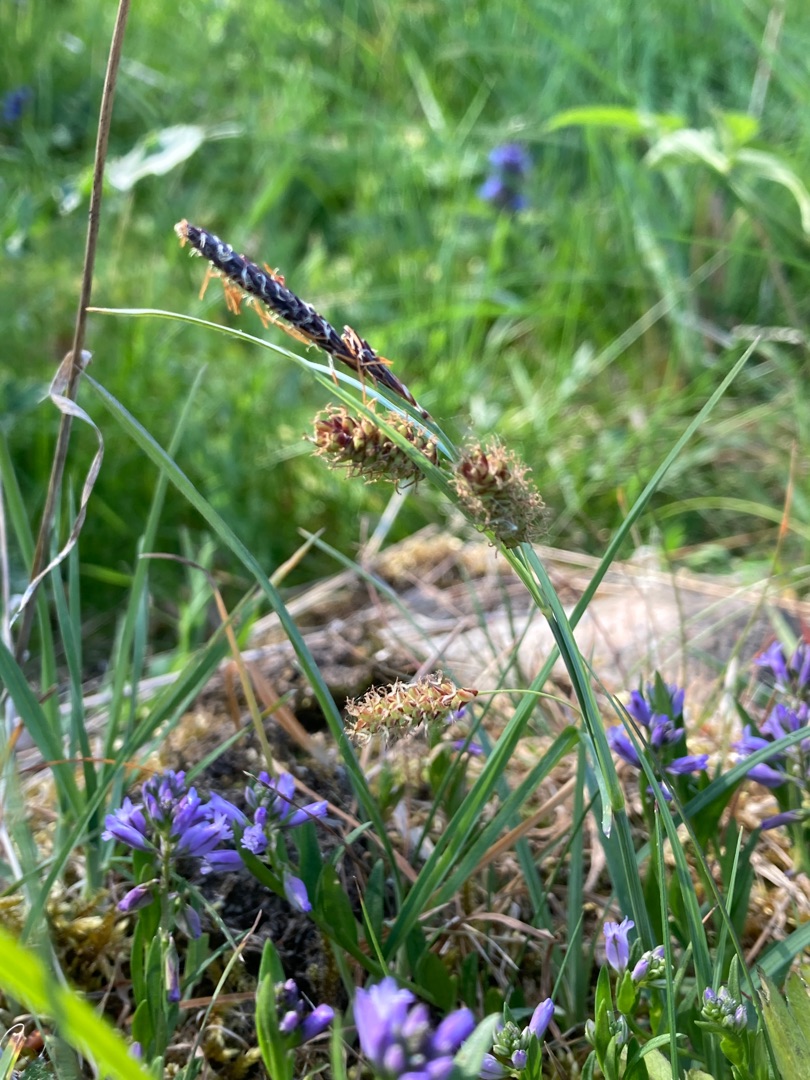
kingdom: Plantae
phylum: Tracheophyta
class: Liliopsida
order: Poales
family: Cyperaceae
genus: Carex
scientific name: Carex flacca
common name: Blågrøn star
